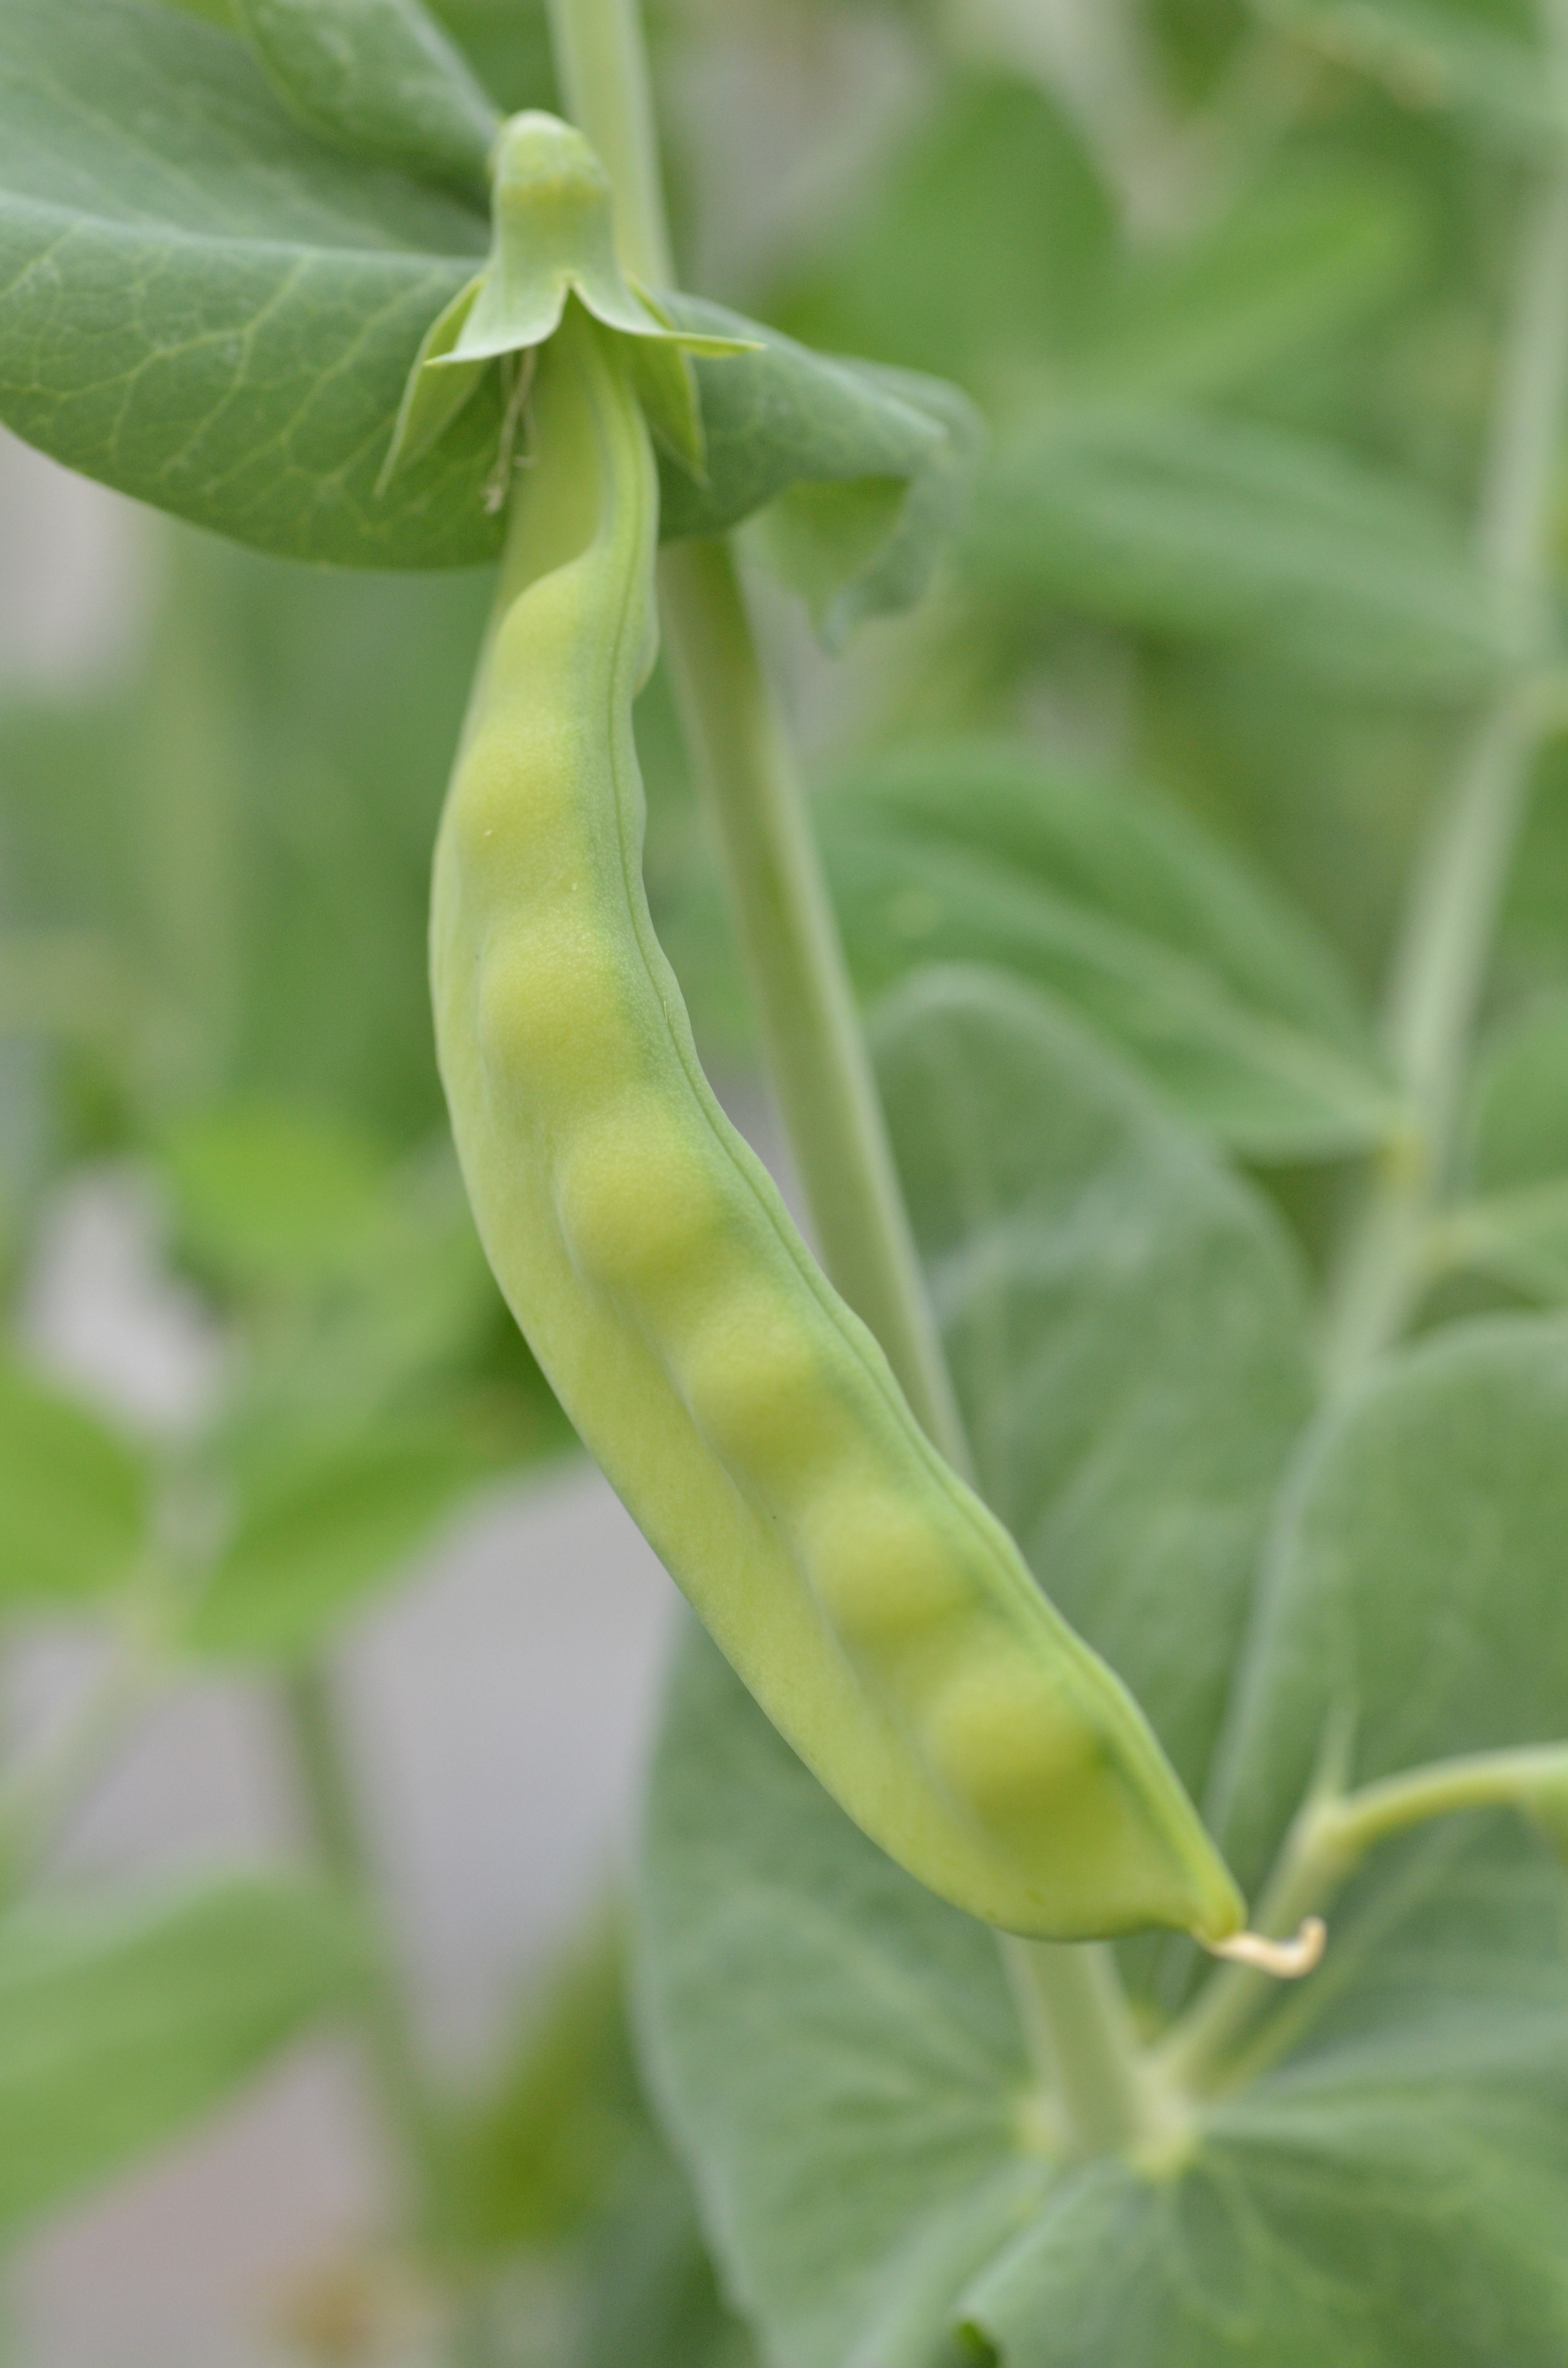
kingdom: Plantae
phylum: Tracheophyta
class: Magnoliopsida
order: Fabales
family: Fabaceae
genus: Lathyrus
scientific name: Lathyrus oleraceus
